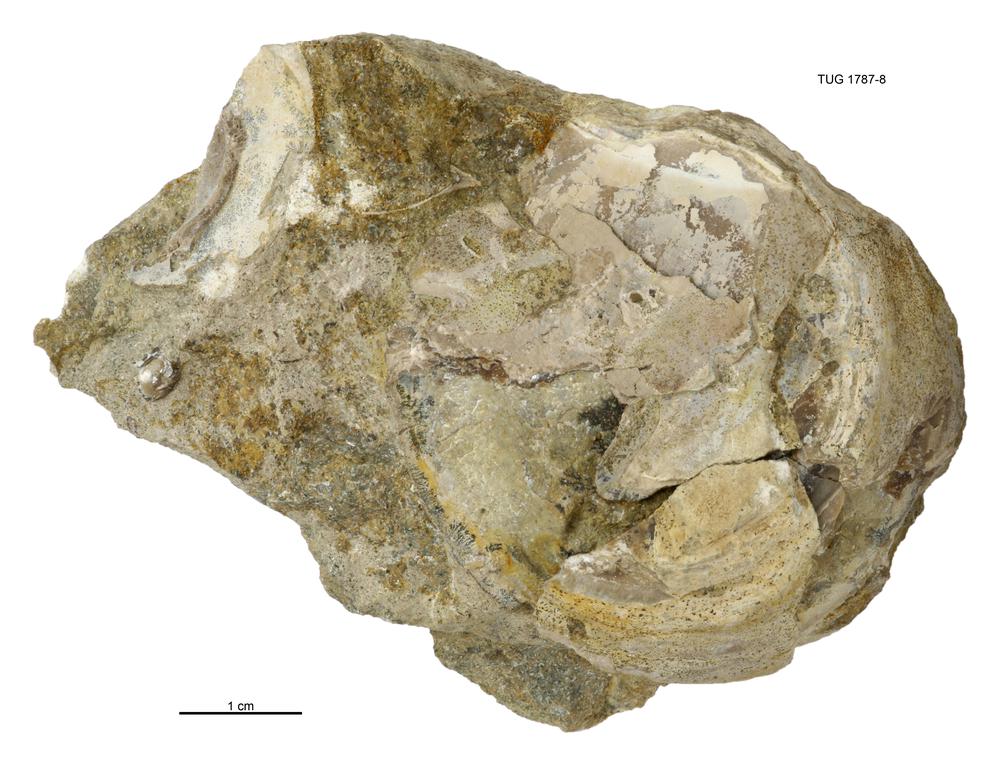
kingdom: Animalia
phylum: Mollusca
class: Monoplacophora
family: Metoptomatidae
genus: Metoptoma
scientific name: Metoptoma
